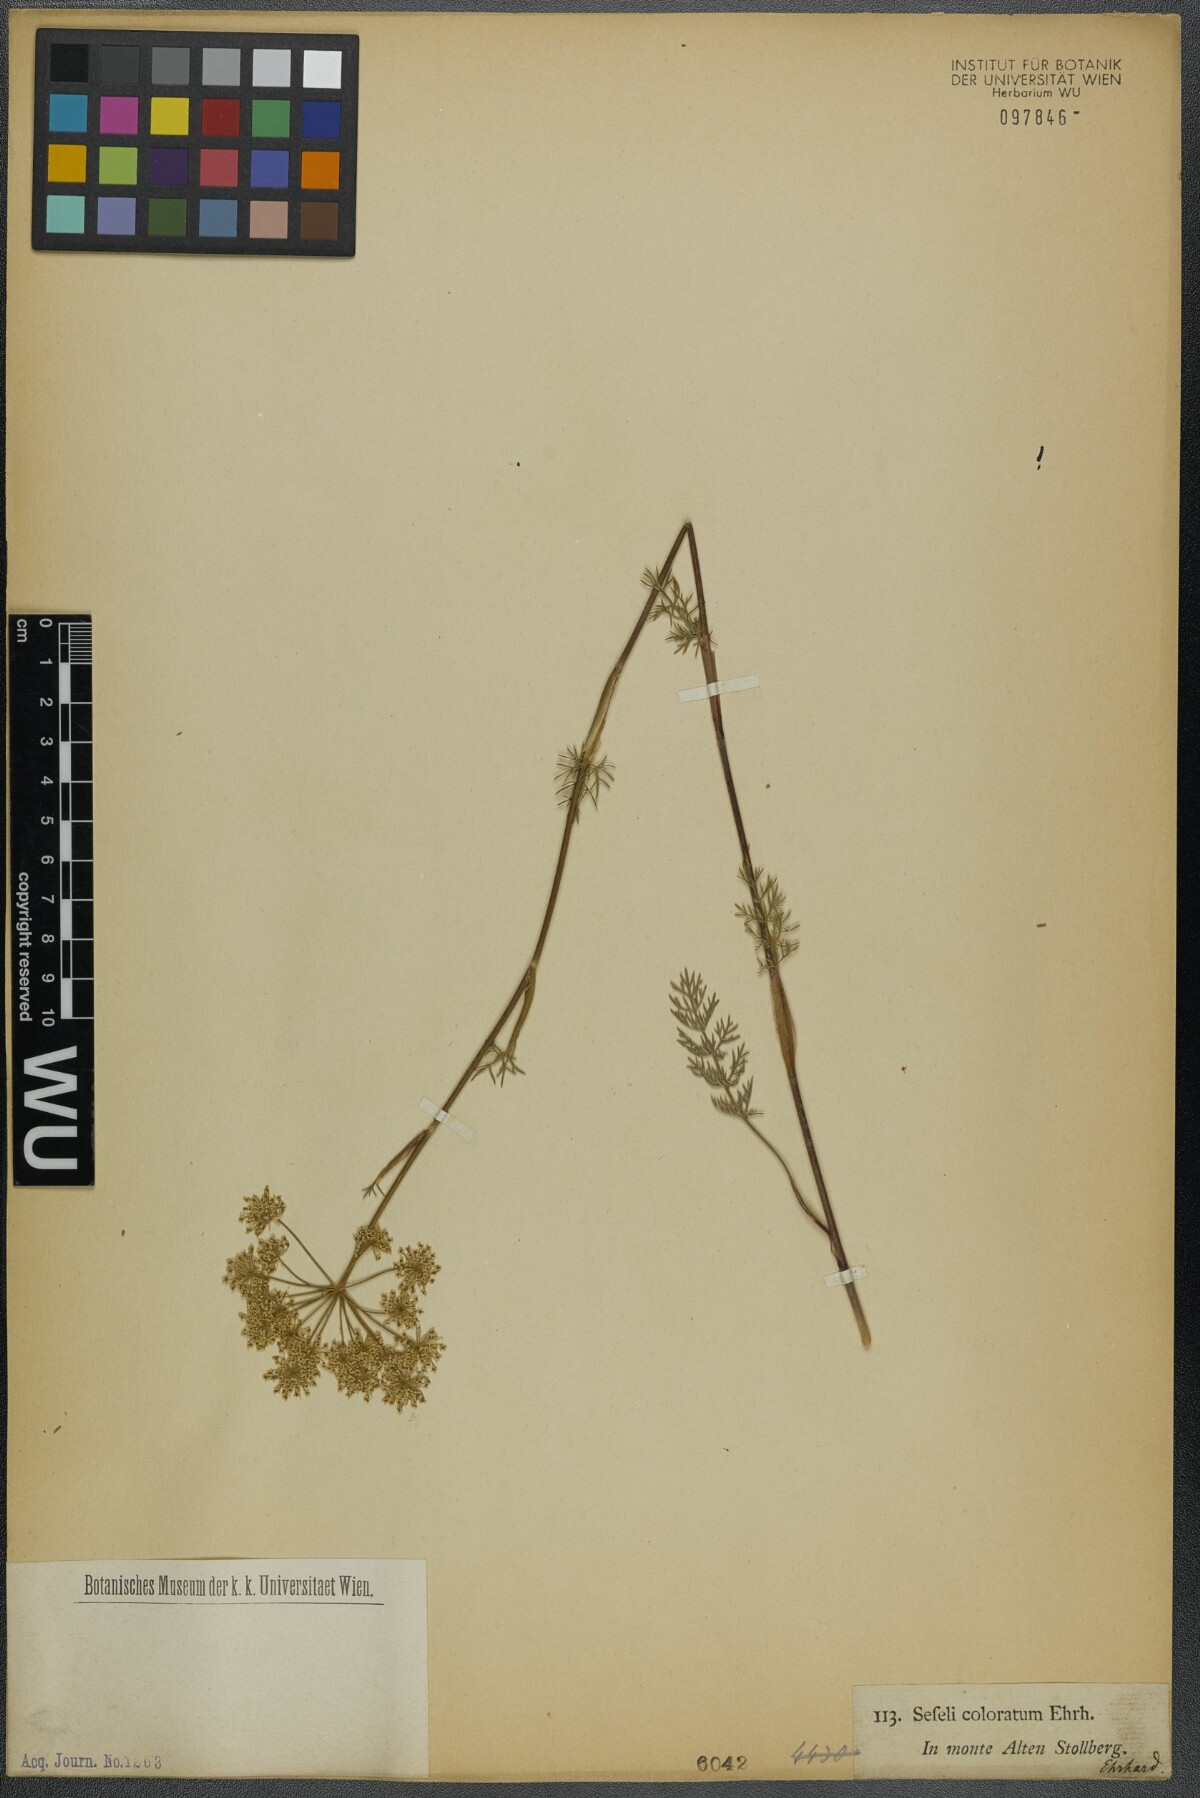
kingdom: Plantae
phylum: Tracheophyta
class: Magnoliopsida
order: Apiales
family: Apiaceae
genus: Seseli
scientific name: Seseli annuum
